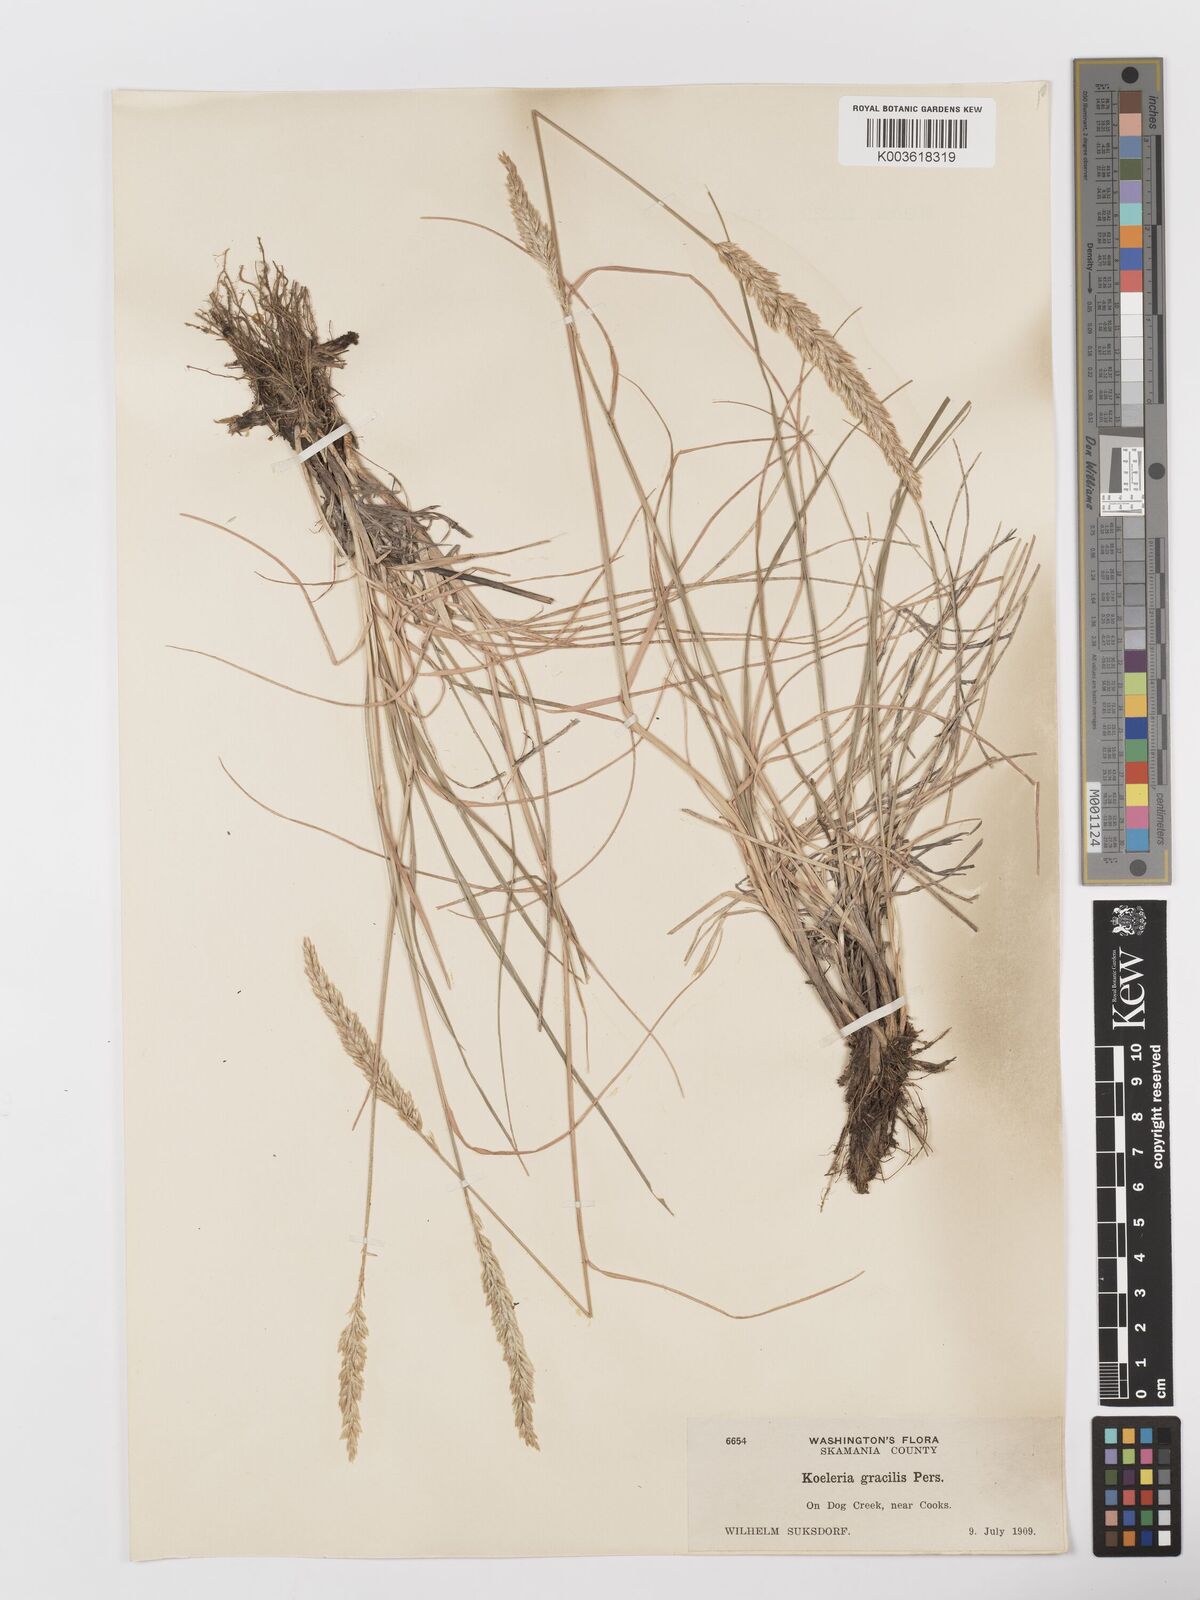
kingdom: Plantae
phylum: Tracheophyta
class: Liliopsida
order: Poales
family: Poaceae
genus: Koeleria
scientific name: Koeleria macrantha
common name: Crested hair-grass
